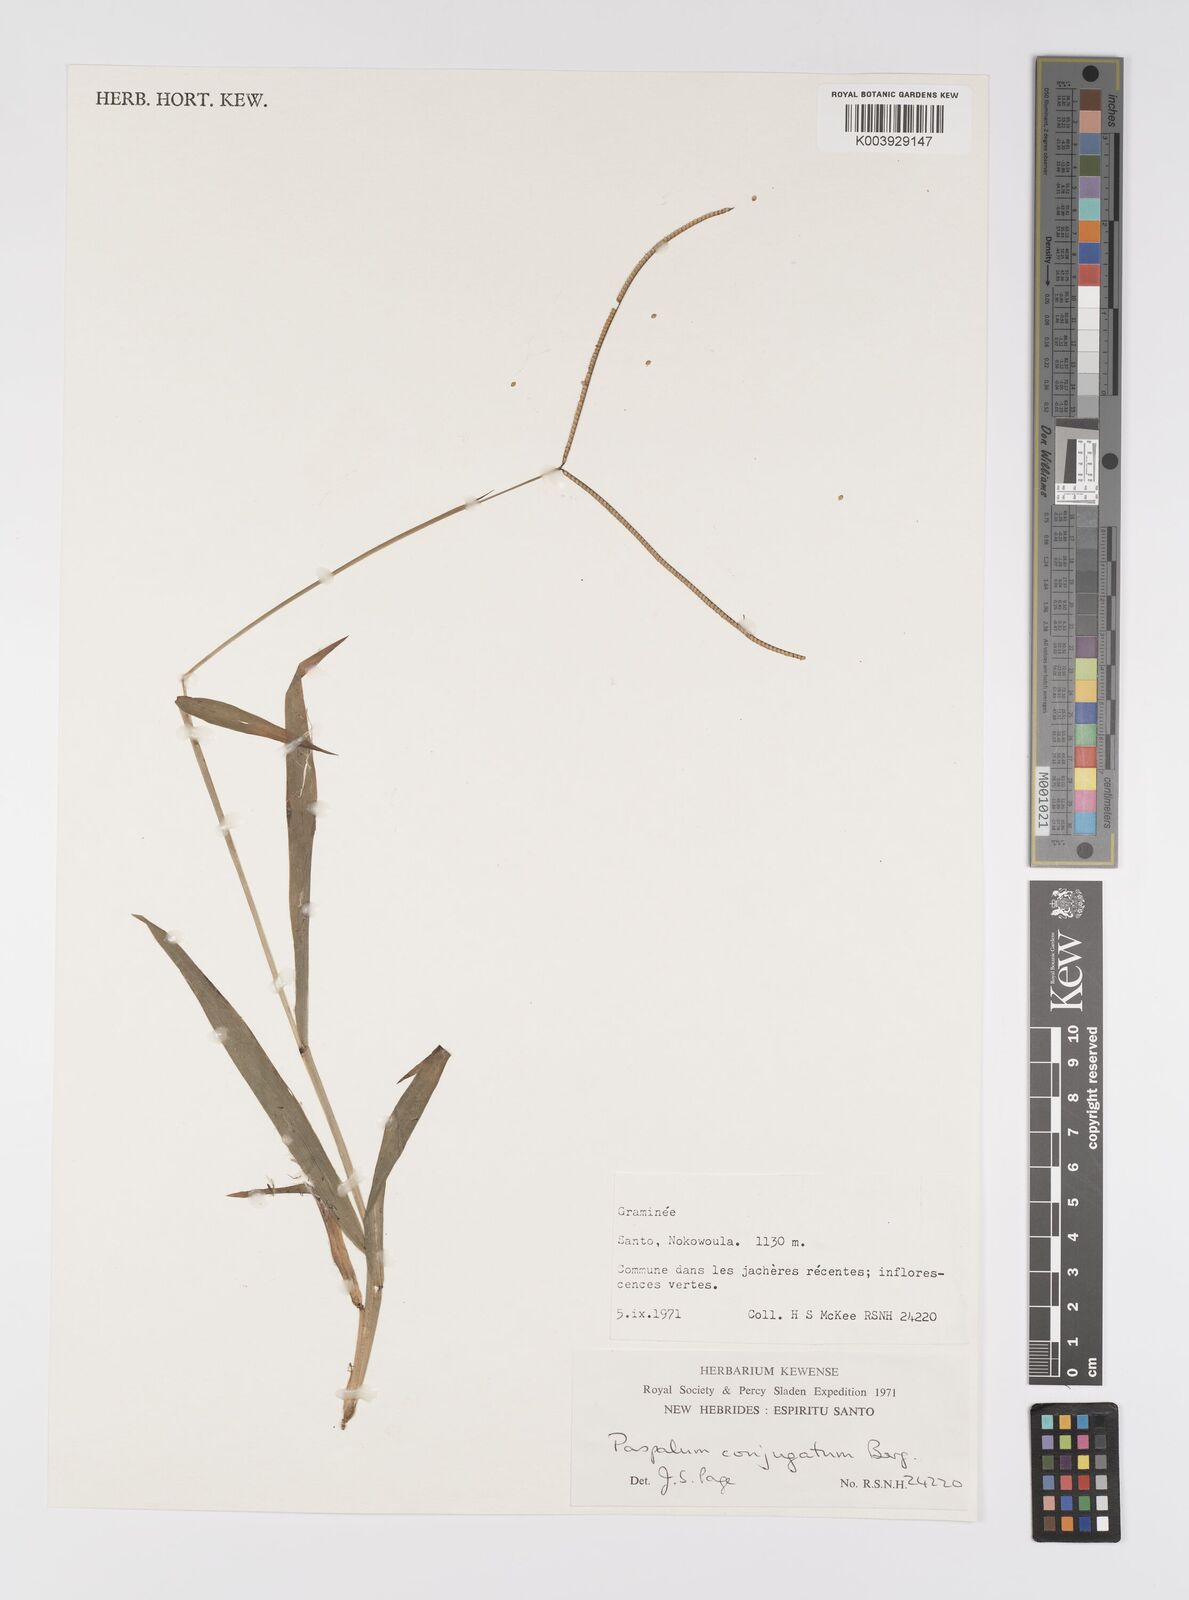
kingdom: Plantae
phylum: Tracheophyta
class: Liliopsida
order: Poales
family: Poaceae
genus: Paspalum
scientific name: Paspalum conjugatum
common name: Hilograss
